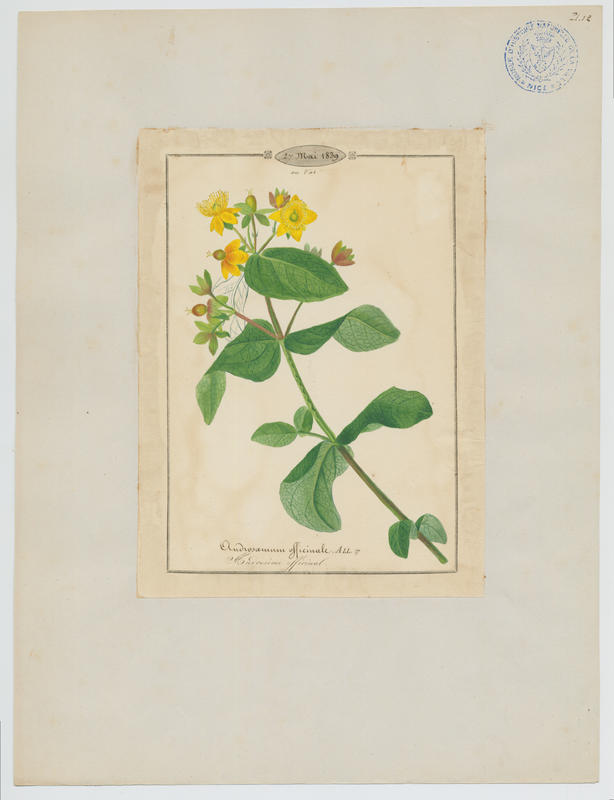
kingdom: Plantae
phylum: Tracheophyta
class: Magnoliopsida
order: Malpighiales
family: Hypericaceae
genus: Hypericum
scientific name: Hypericum androsaemum
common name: Sweet-amber
